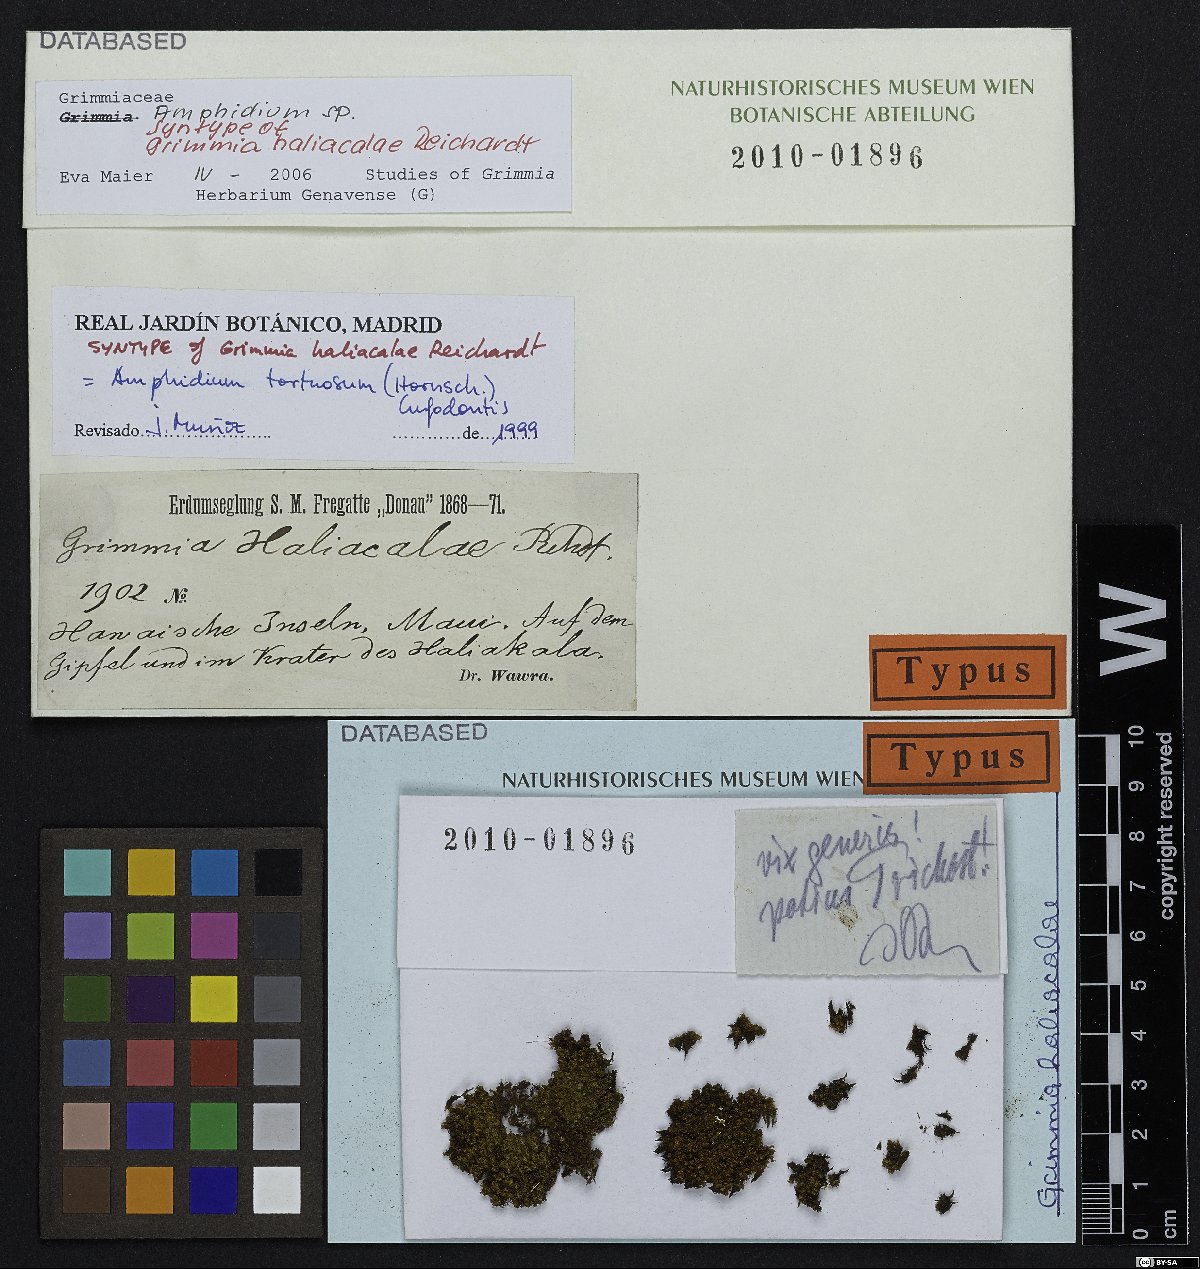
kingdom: Plantae
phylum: Bryophyta
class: Bryopsida
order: Dicranales
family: Amphidiaceae
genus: Amphidium
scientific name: Amphidium tortuosum
